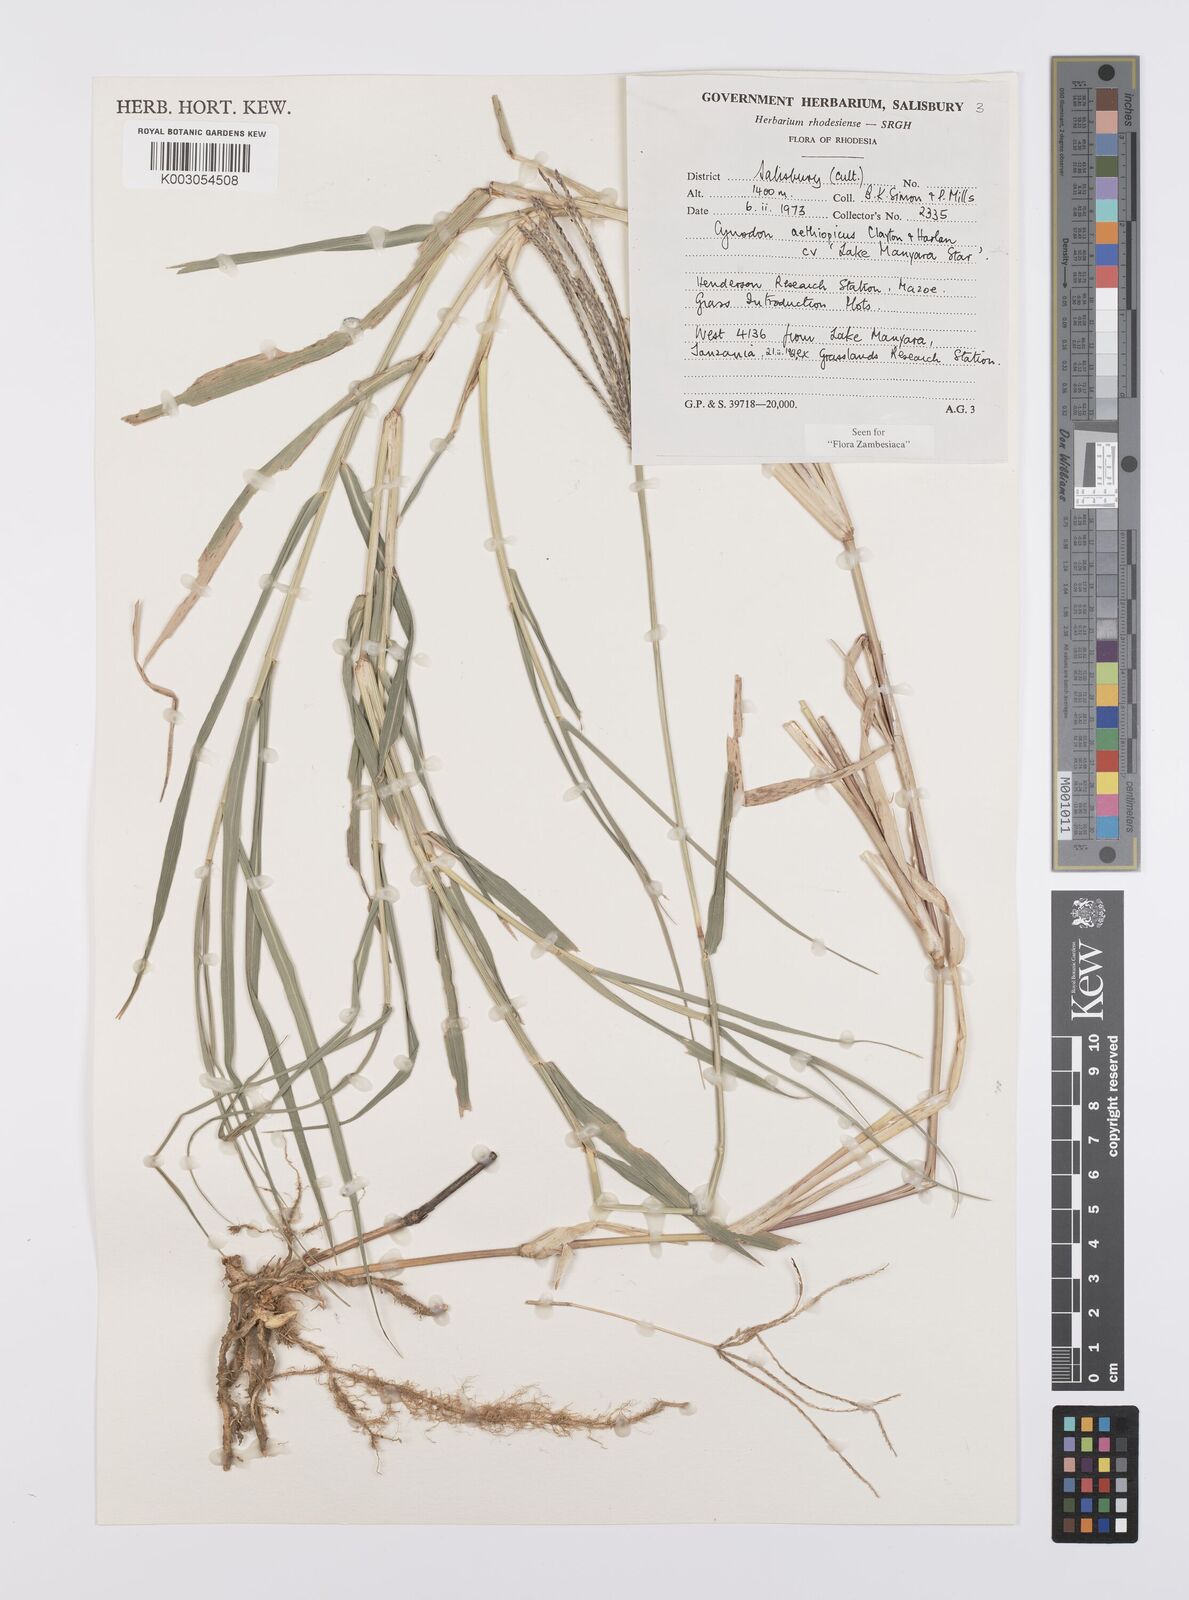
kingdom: Plantae
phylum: Tracheophyta
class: Liliopsida
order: Poales
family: Poaceae
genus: Cynodon
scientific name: Cynodon aethiopicus
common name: Ethiopian dogstooth grass
